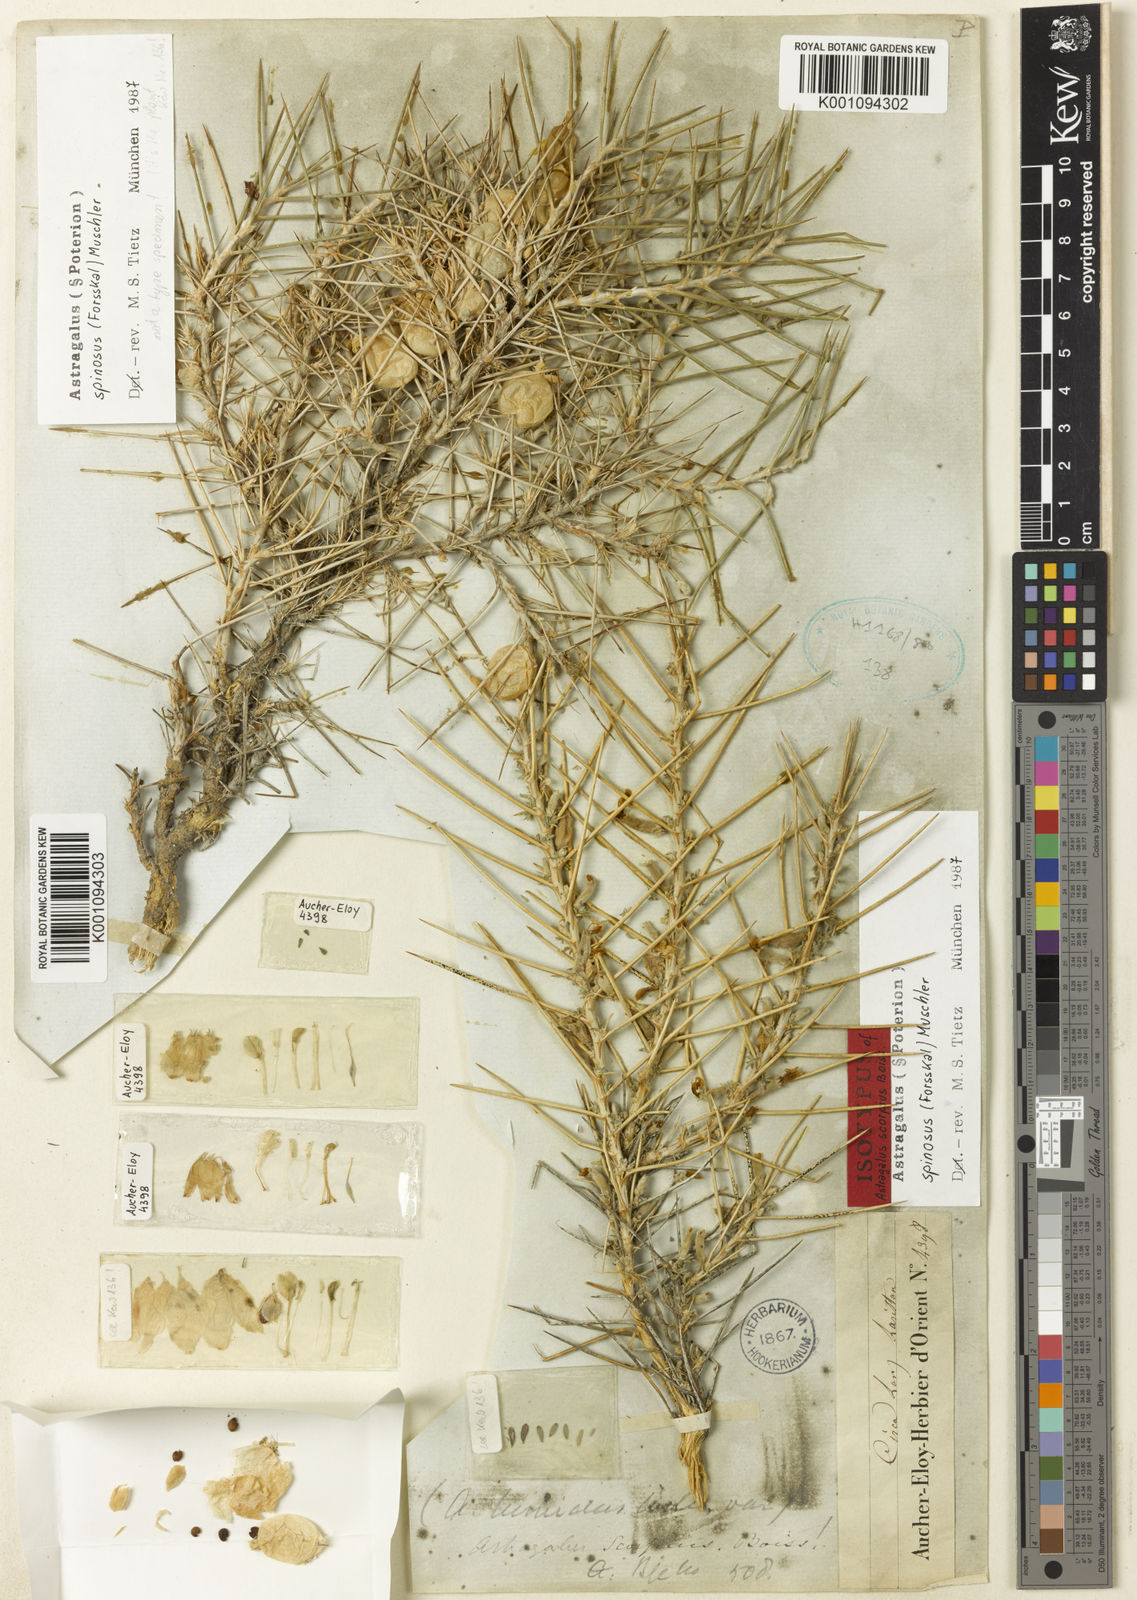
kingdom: Plantae
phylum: Tracheophyta
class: Magnoliopsida
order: Fabales
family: Fabaceae
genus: Astragalus
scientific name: Astragalus
